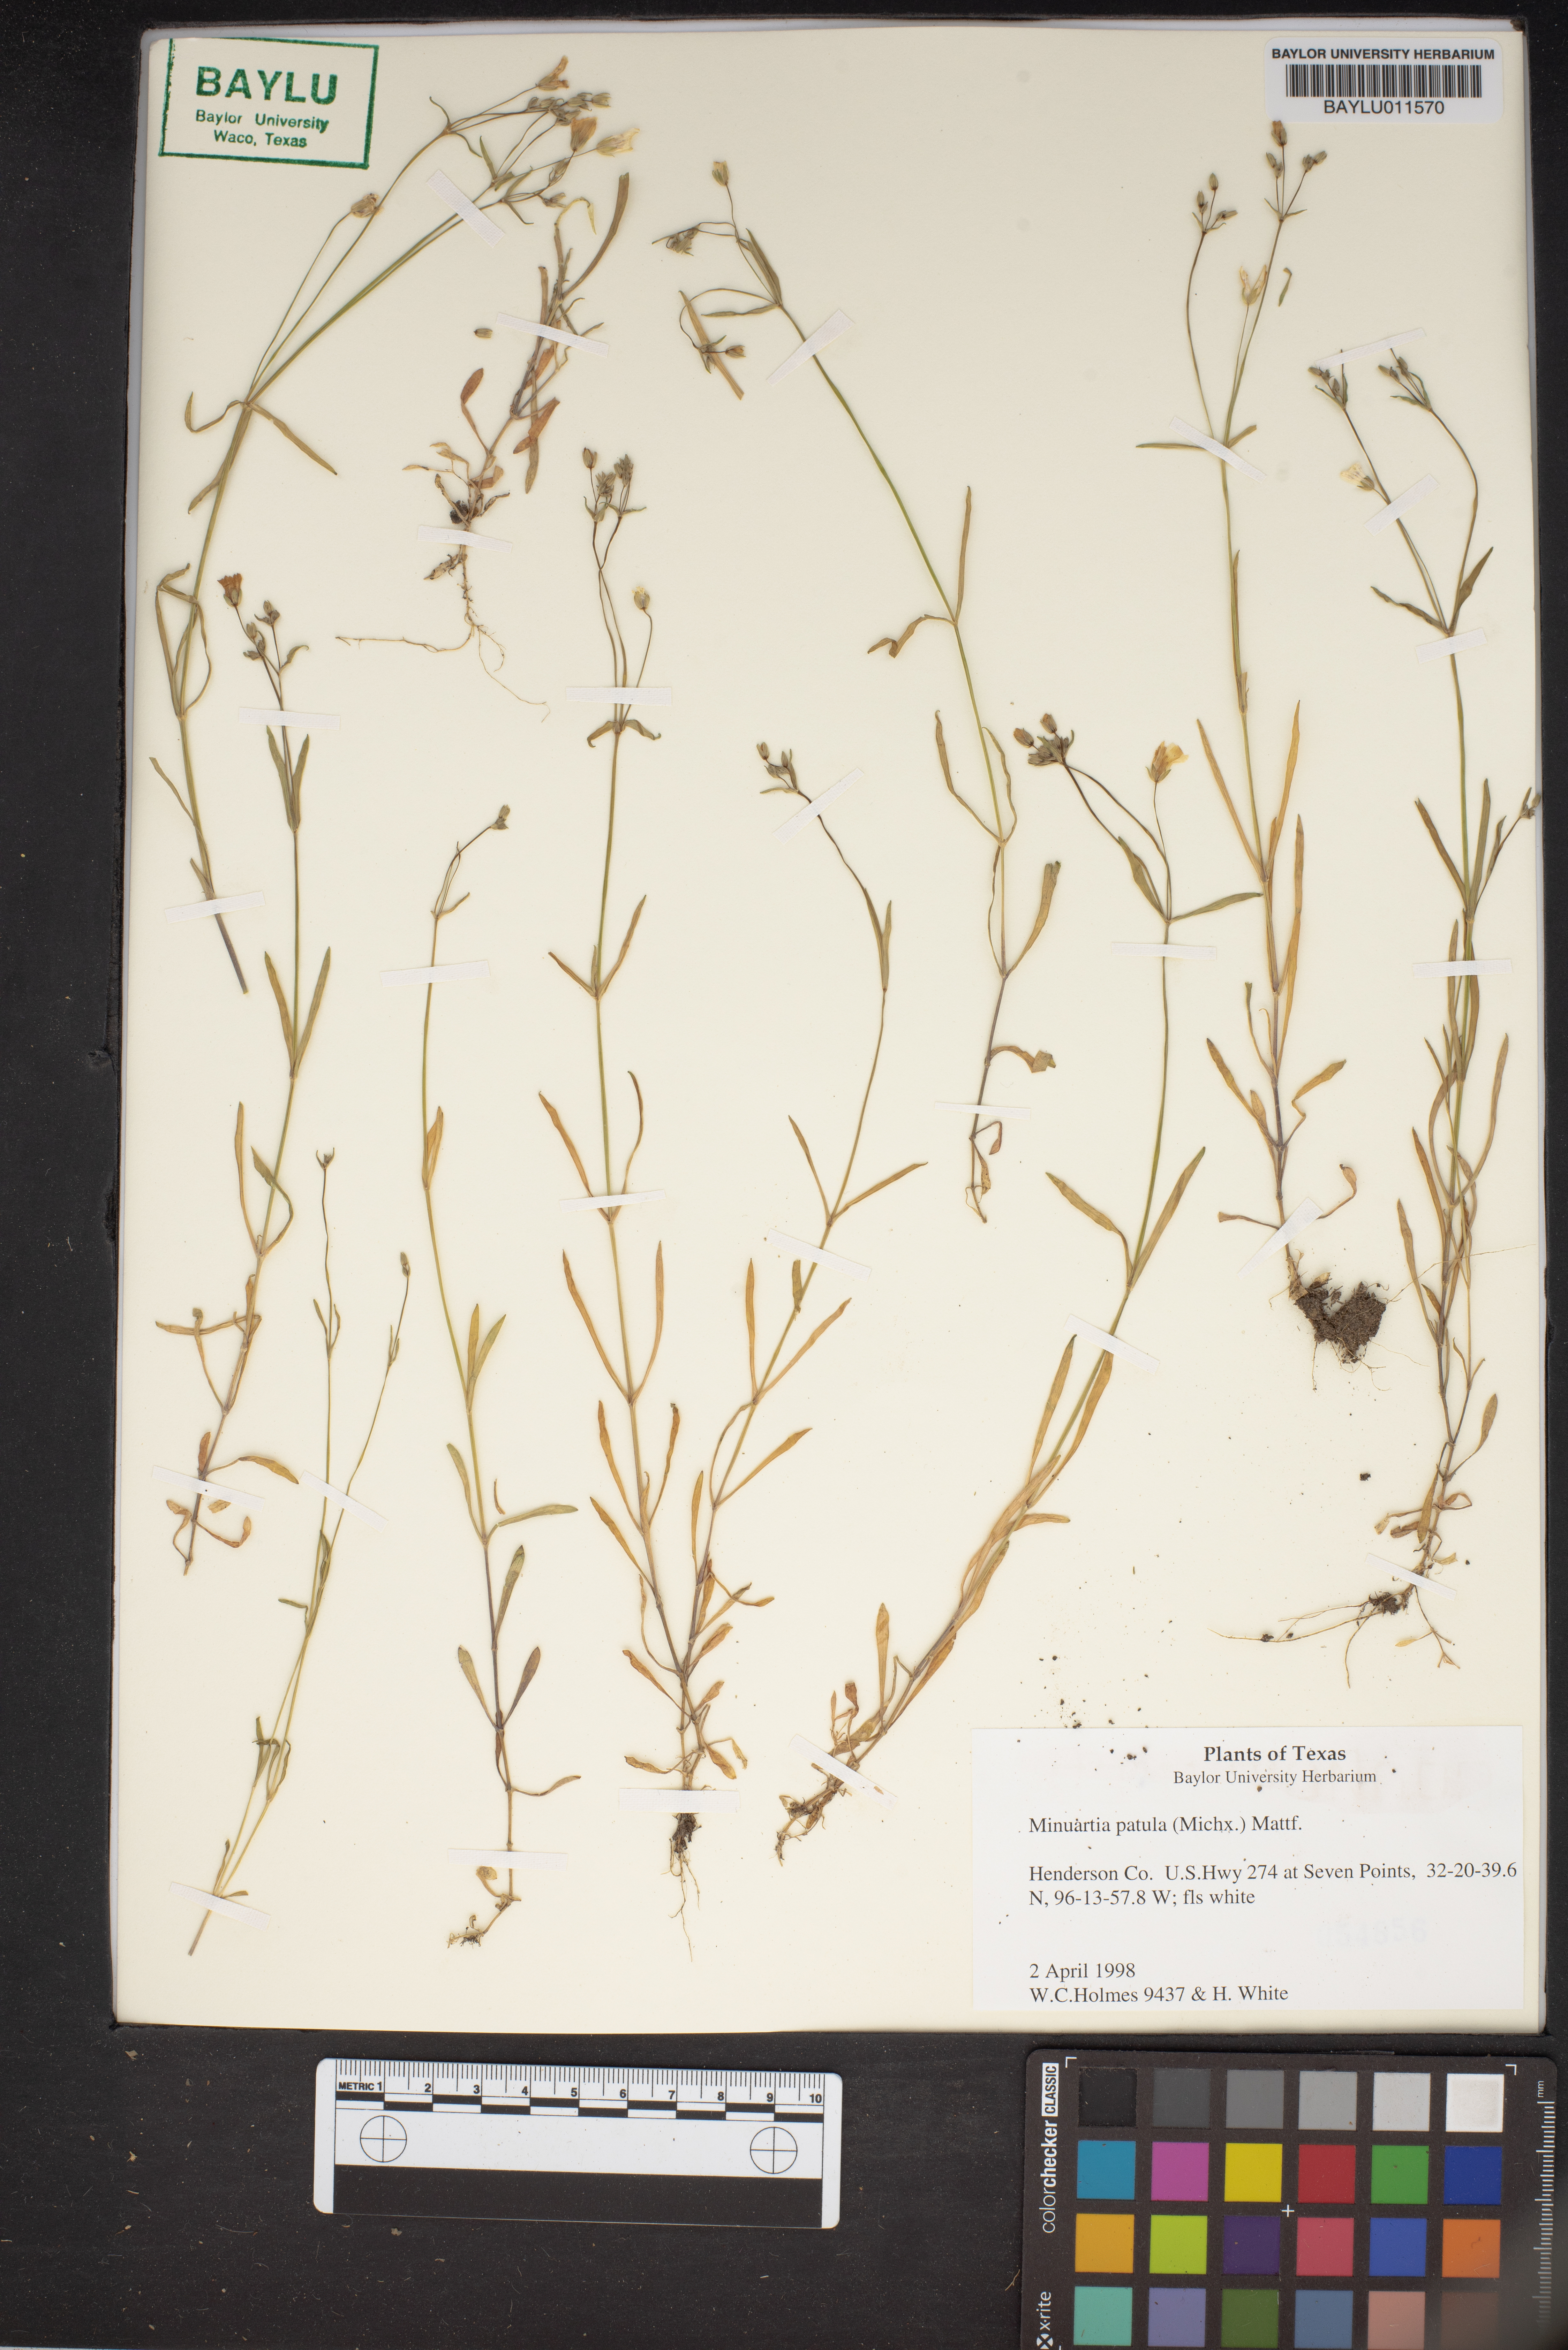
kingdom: Plantae
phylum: Tracheophyta
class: Magnoliopsida
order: Caryophyllales
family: Caryophyllaceae
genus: Mononeuria
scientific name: Mononeuria patula
